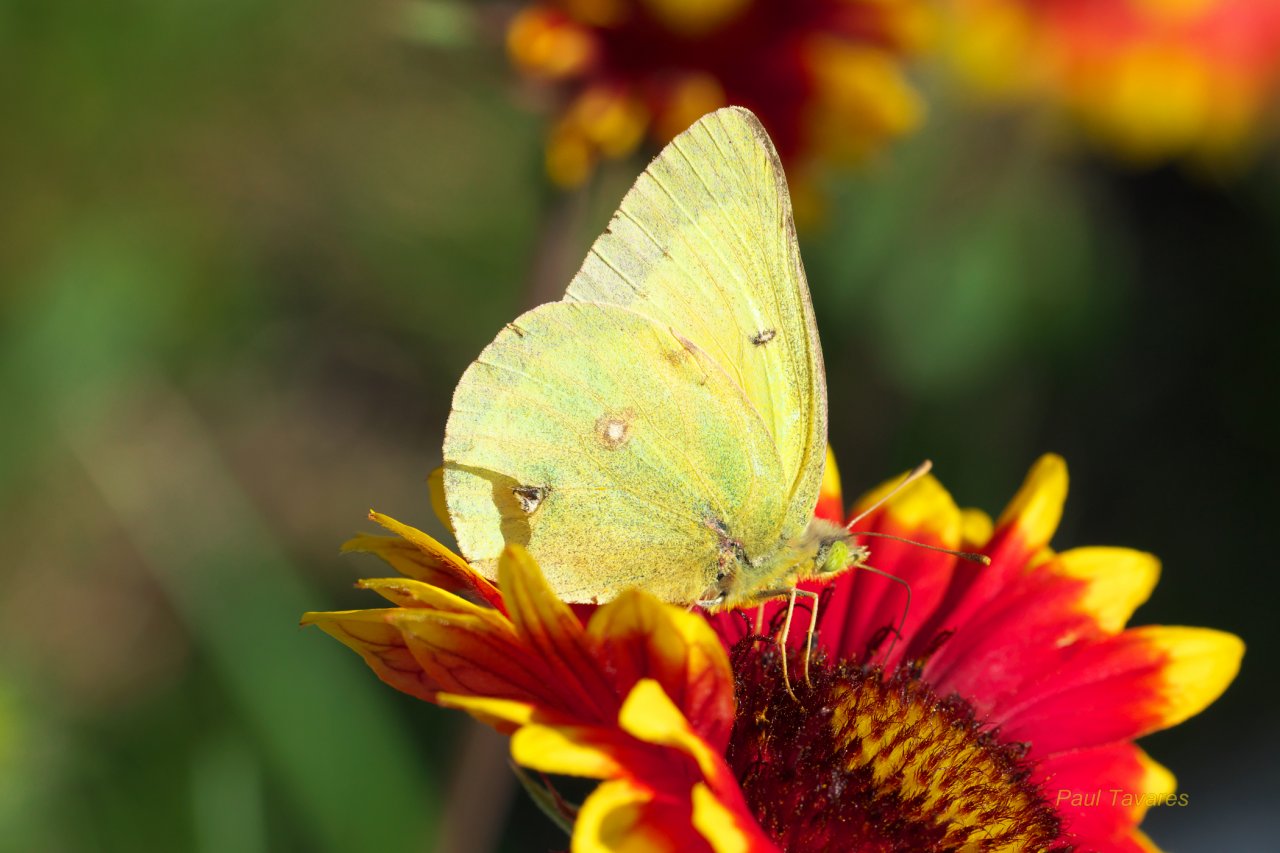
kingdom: Animalia
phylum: Arthropoda
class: Insecta
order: Lepidoptera
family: Pieridae
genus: Colias
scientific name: Colias philodice
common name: Clouded Sulphur
